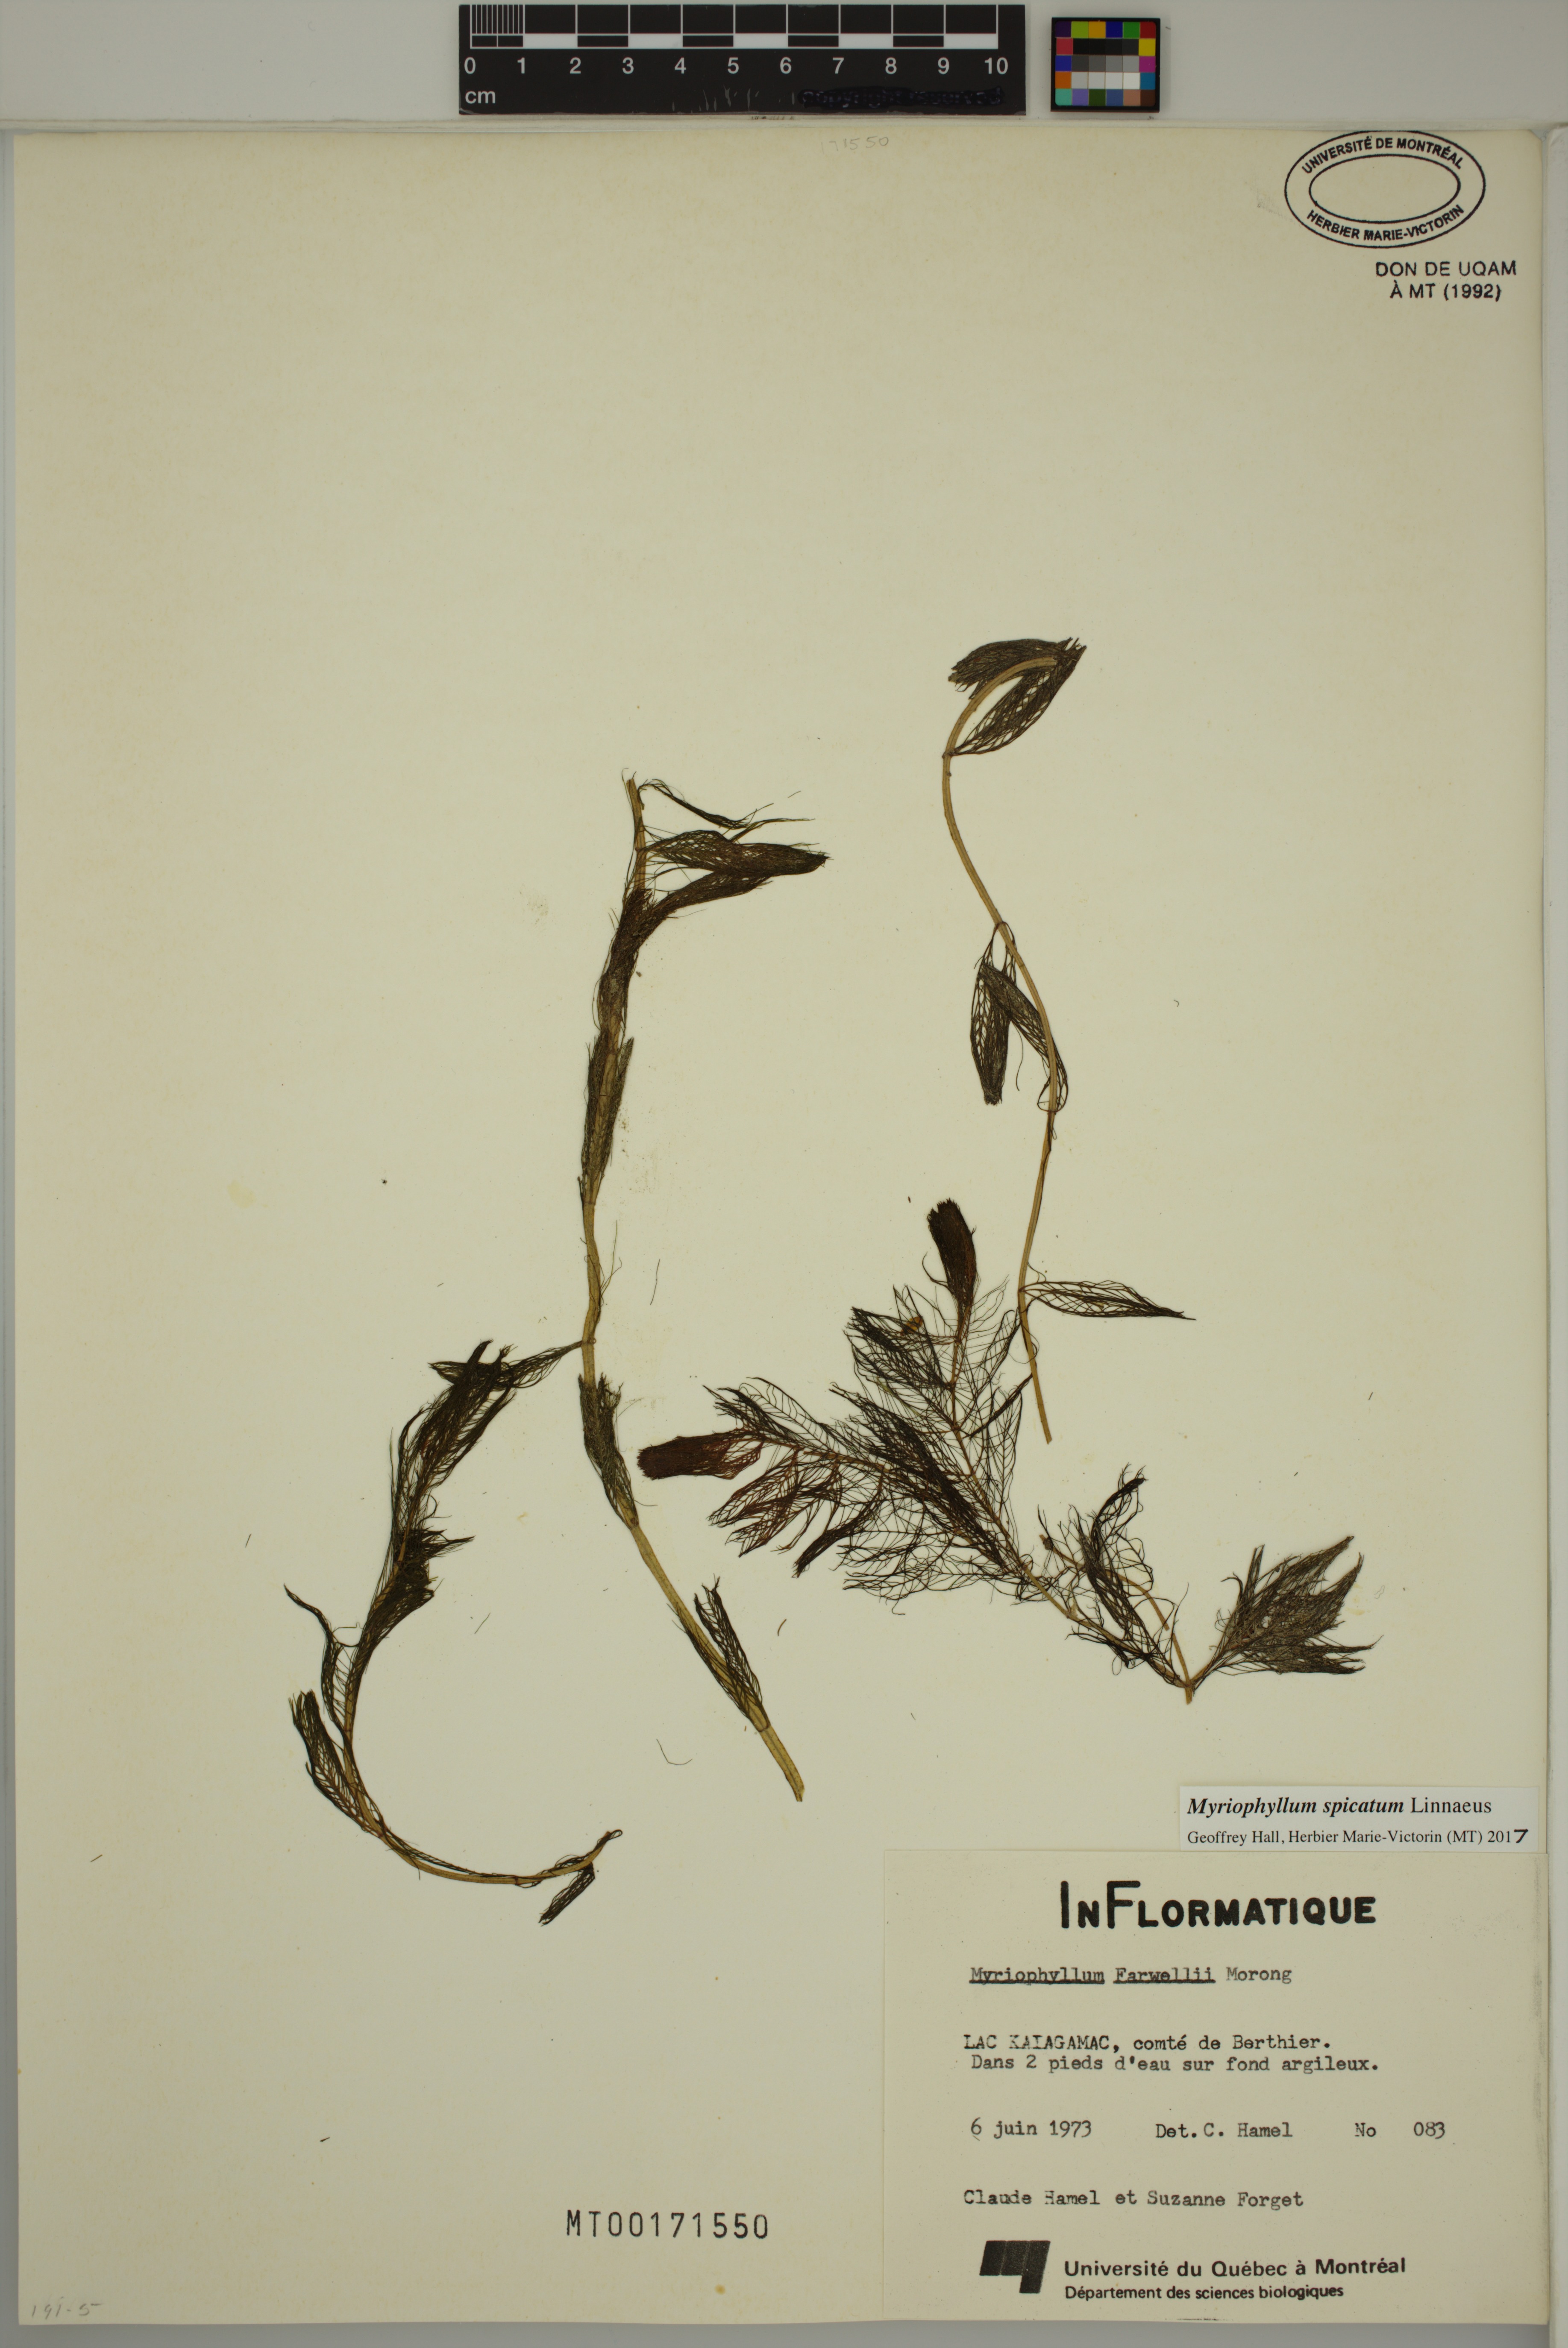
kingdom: Plantae
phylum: Tracheophyta
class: Magnoliopsida
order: Saxifragales
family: Haloragaceae
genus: Myriophyllum
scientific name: Myriophyllum spicatum
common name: Spiked water-milfoil
